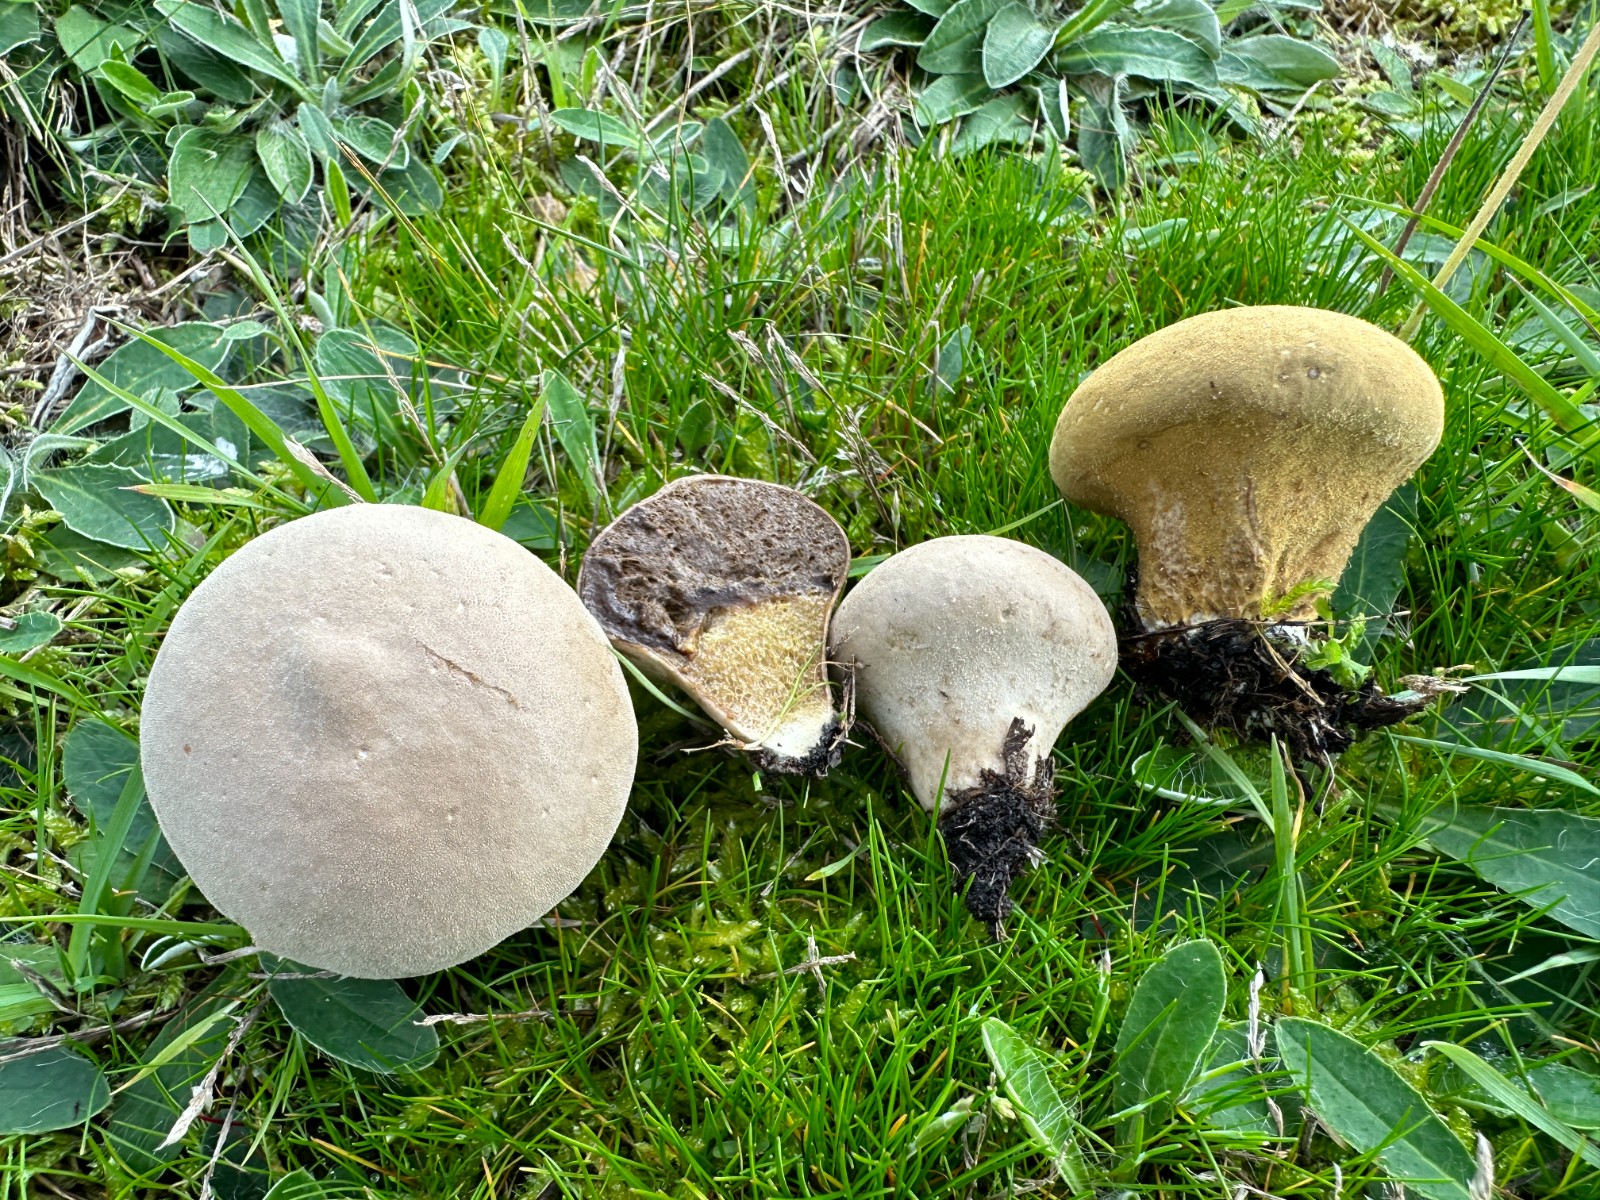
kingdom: Fungi
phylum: Basidiomycota
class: Agaricomycetes
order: Agaricales
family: Lycoperdaceae
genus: Lycoperdon
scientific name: Lycoperdon pratense
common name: flad støvbold
